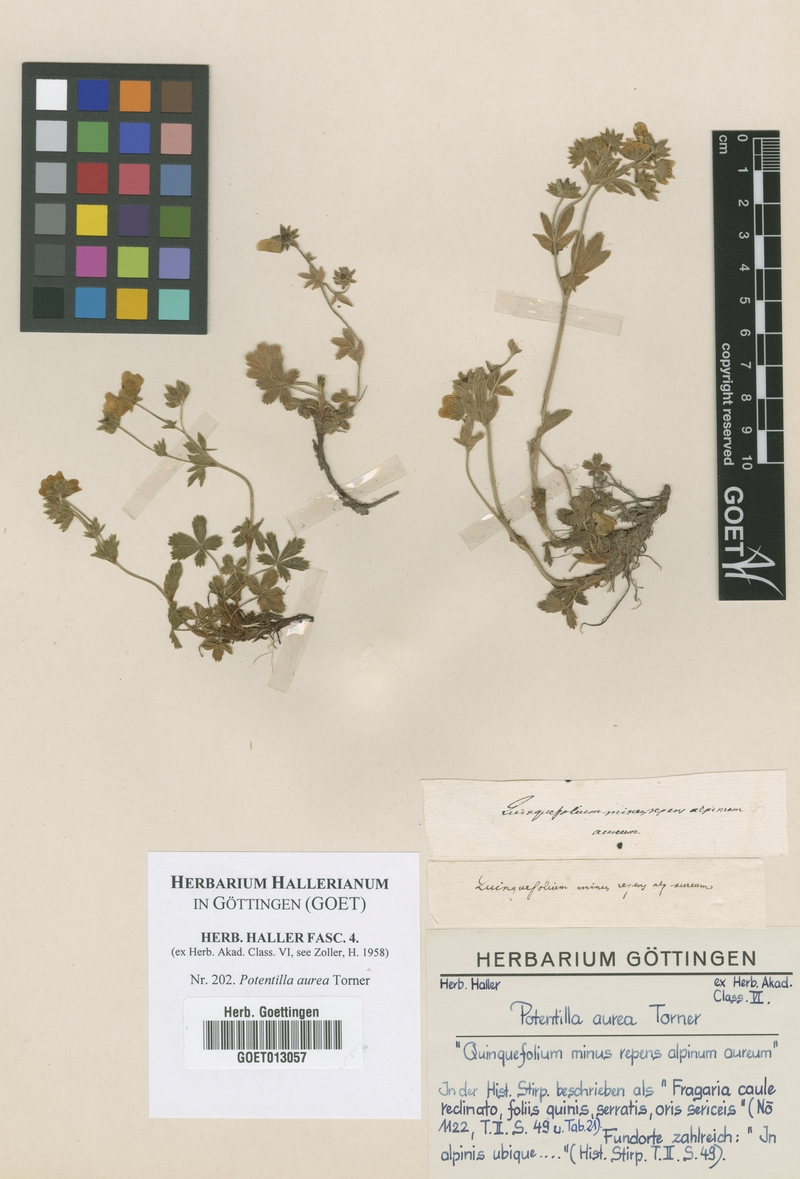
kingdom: Plantae
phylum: Tracheophyta
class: Magnoliopsida
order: Rosales
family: Rosaceae
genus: Potentilla
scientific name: Potentilla aurea
